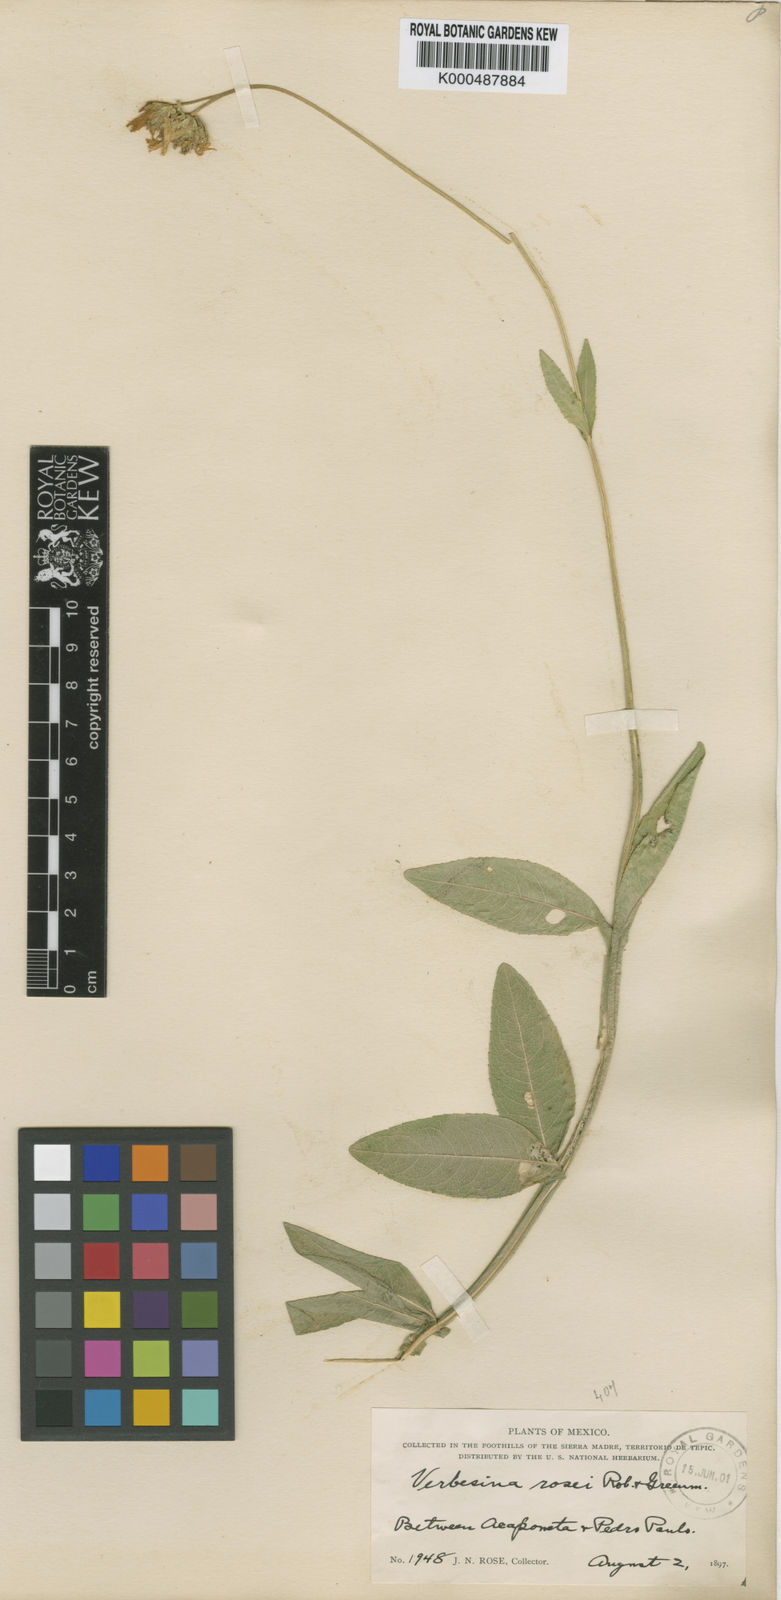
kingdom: Plantae
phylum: Tracheophyta
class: Magnoliopsida
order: Asterales
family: Asteraceae
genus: Verbesina
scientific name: Verbesina rosei
